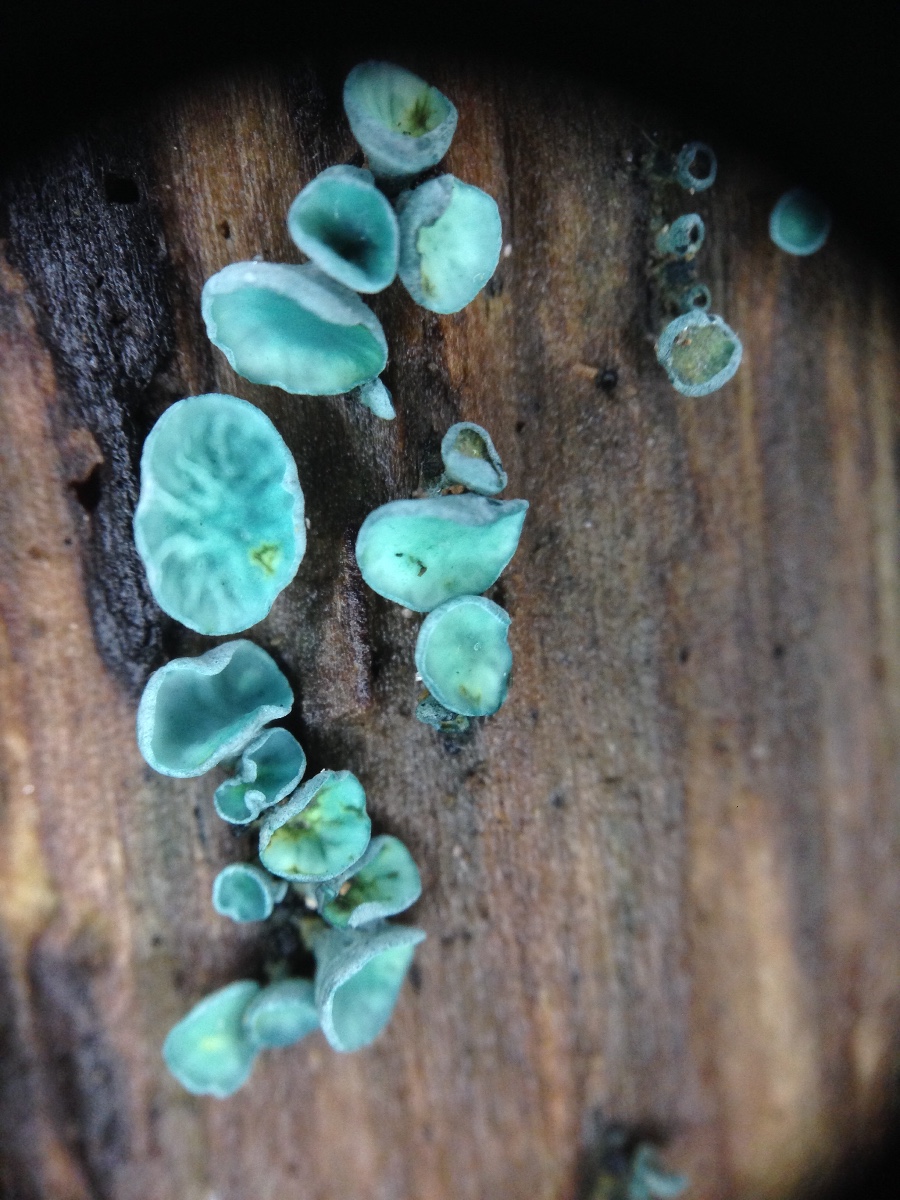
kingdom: Fungi
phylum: Ascomycota
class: Leotiomycetes
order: Helotiales
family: Chlorociboriaceae
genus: Chlorociboria
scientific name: Chlorociboria aeruginascens
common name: almindelig grønskive
